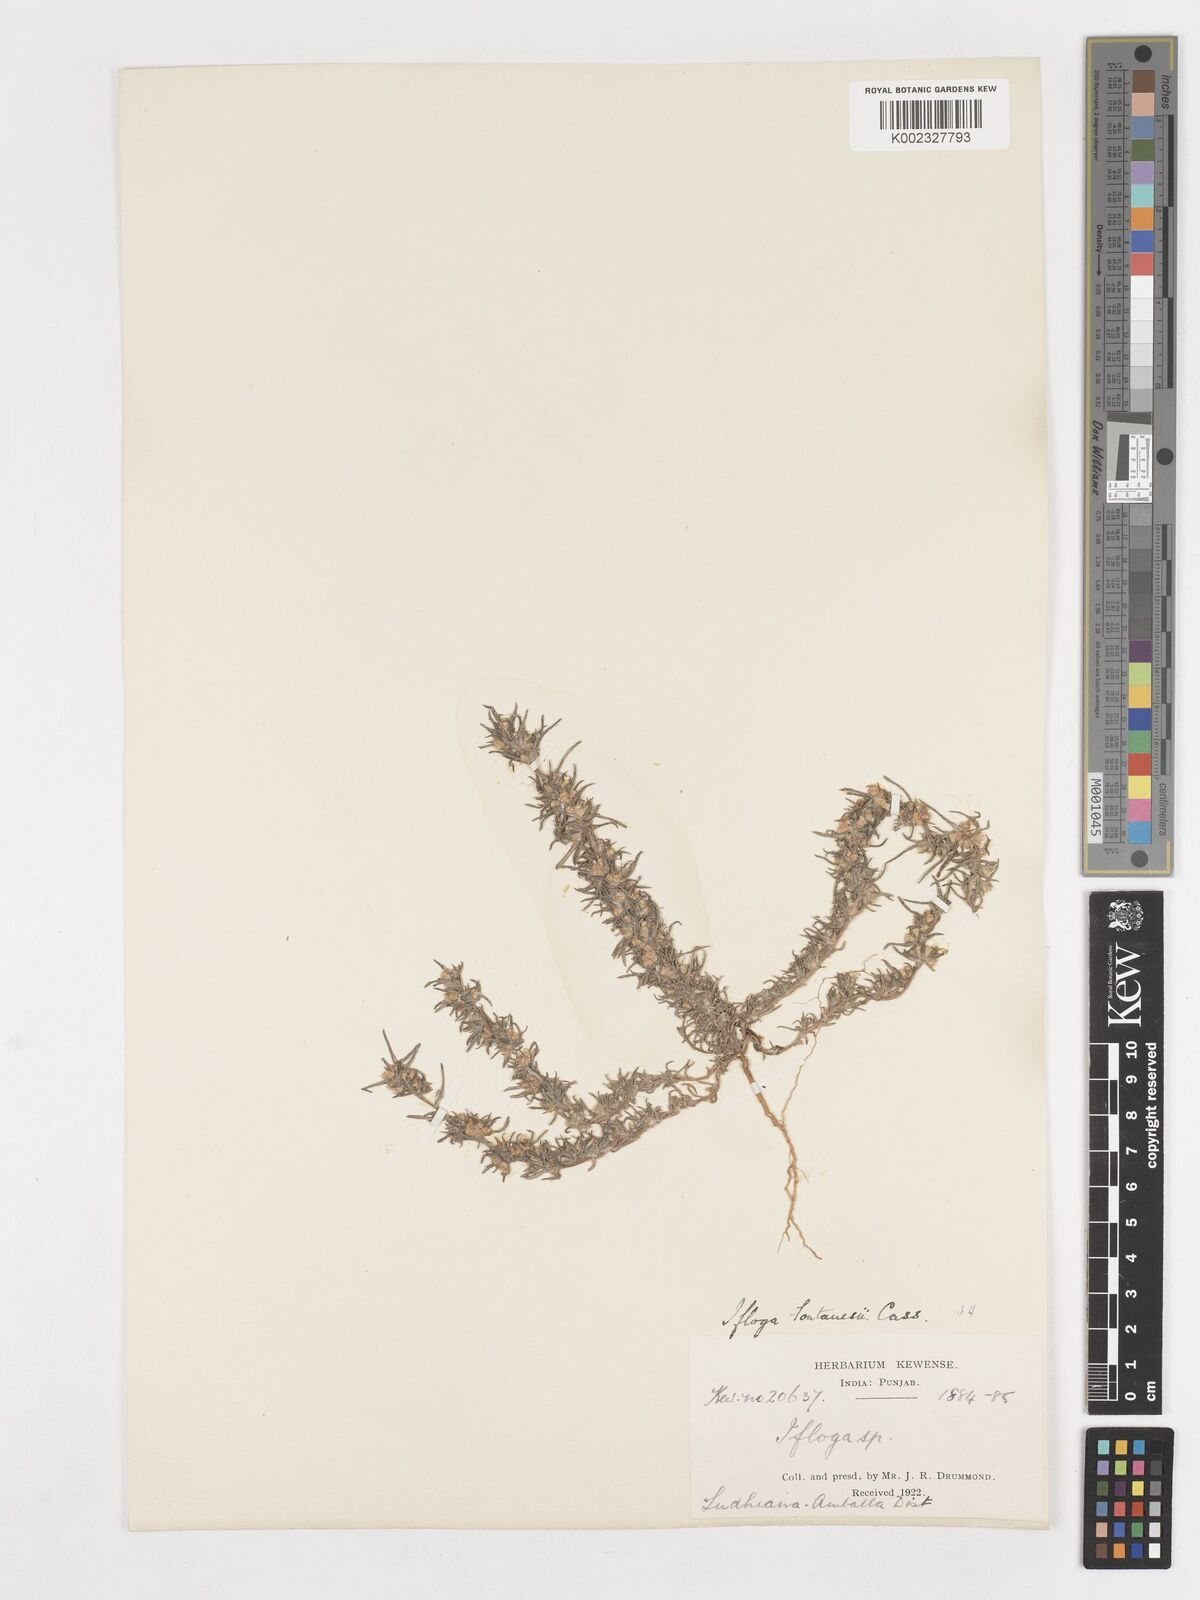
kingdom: Plantae
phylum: Tracheophyta
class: Magnoliopsida
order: Asterales
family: Asteraceae
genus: Ifloga
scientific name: Ifloga spicata
